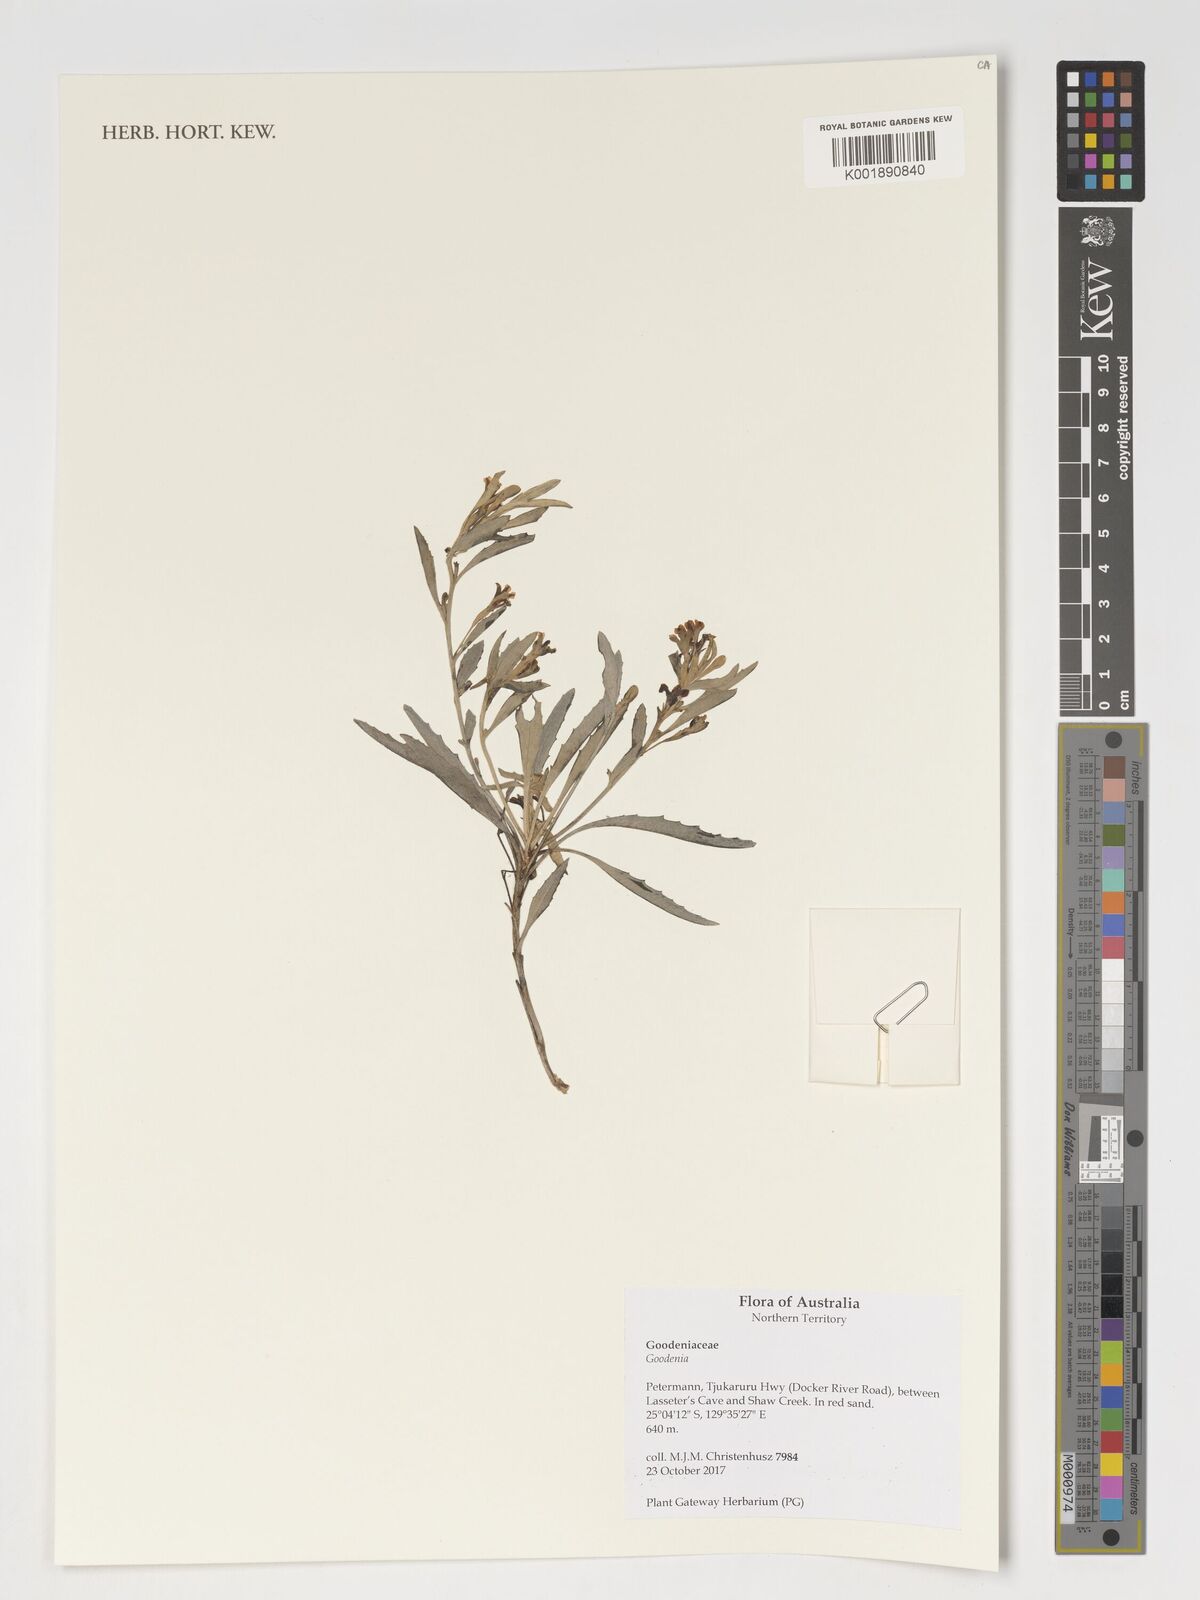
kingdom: Plantae
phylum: Tracheophyta
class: Magnoliopsida
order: Asterales
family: Goodeniaceae
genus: Goodenia
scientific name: Goodenia
